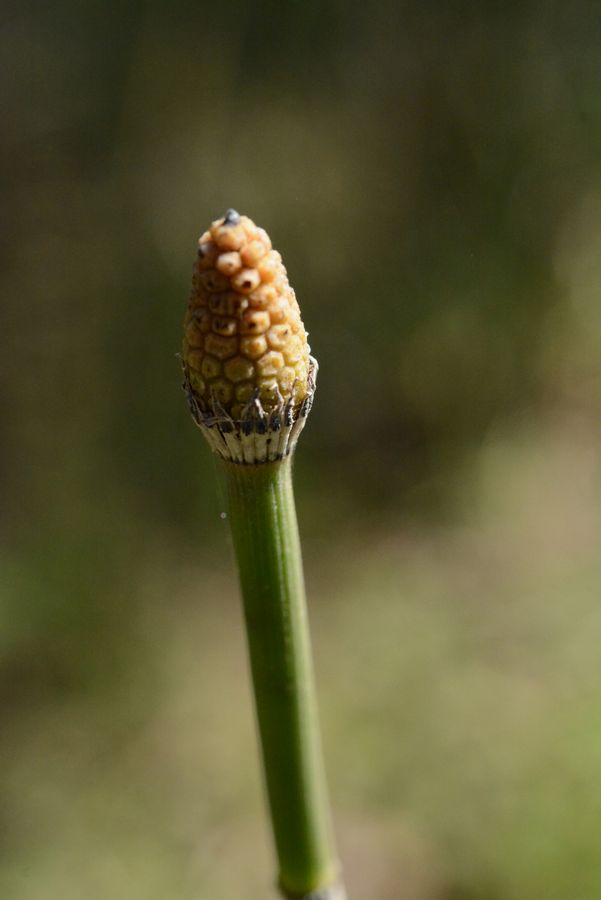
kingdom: Plantae
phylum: Tracheophyta
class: Polypodiopsida
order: Equisetales
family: Equisetaceae
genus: Equisetum
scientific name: Equisetum hyemale
